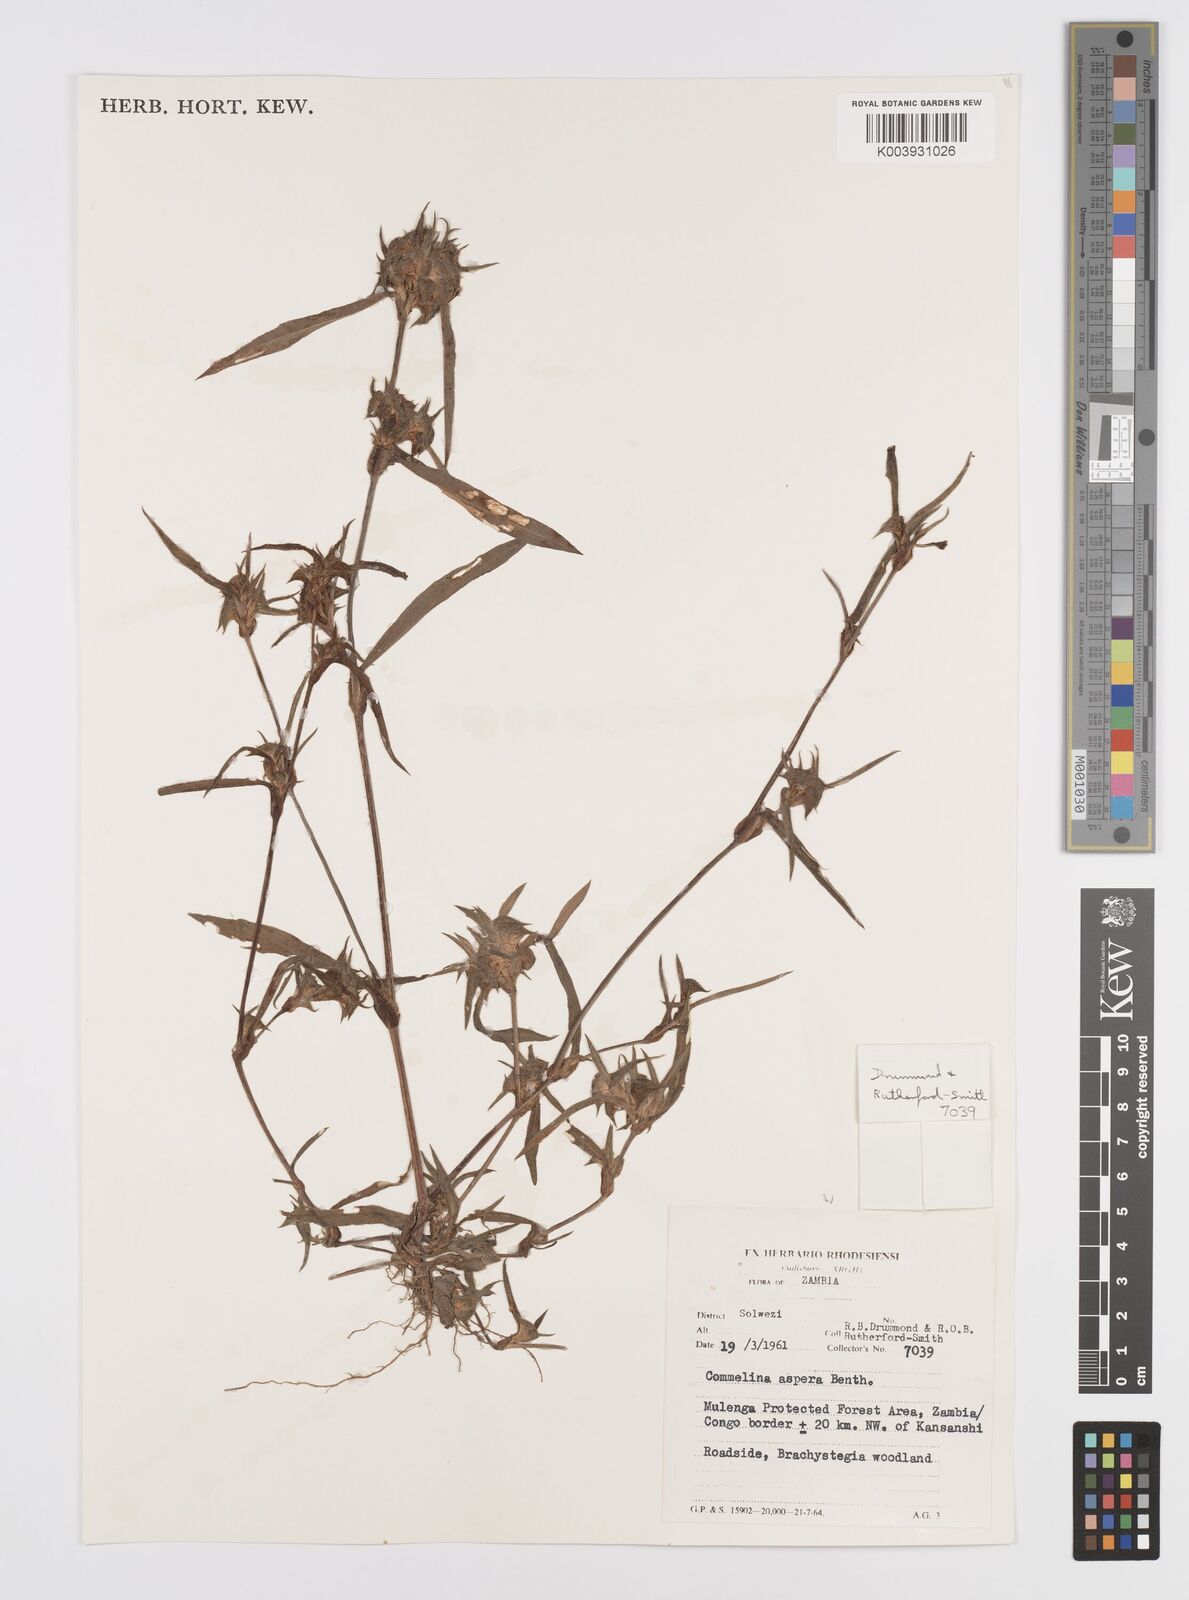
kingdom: Plantae
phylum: Tracheophyta
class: Liliopsida
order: Commelinales
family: Commelinaceae
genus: Commelina
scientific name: Commelina aspera
